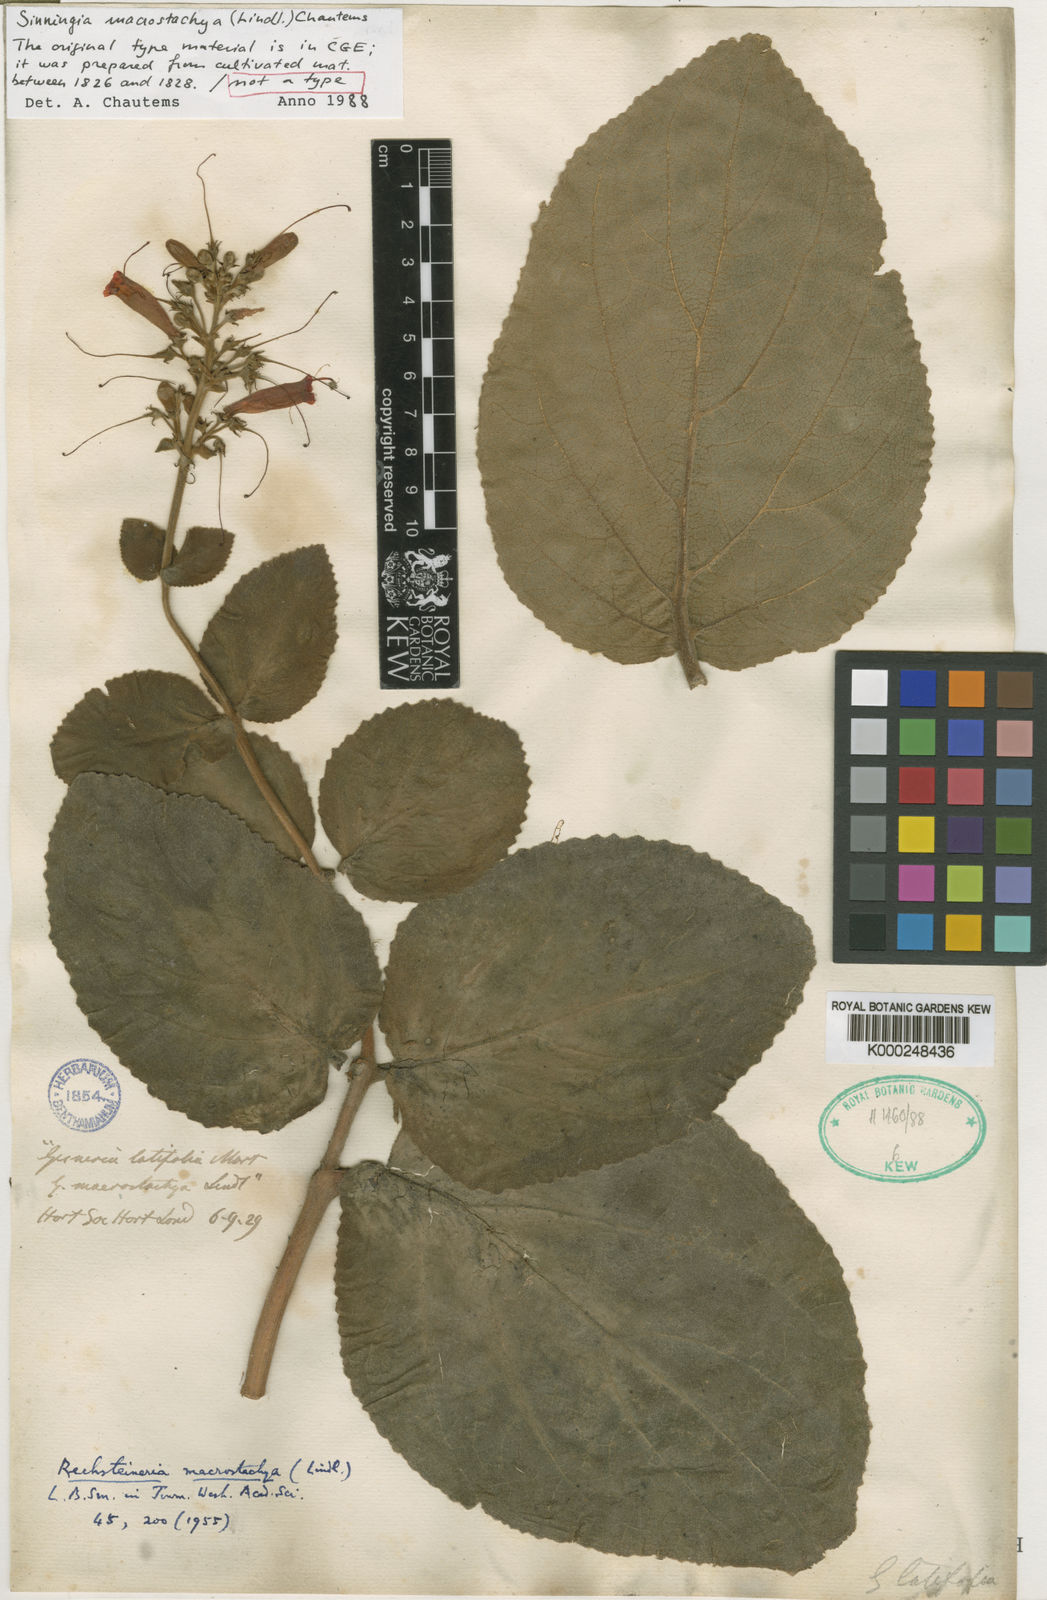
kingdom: Plantae
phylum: Tracheophyta
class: Magnoliopsida
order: Lamiales
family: Gesneriaceae
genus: Sinningia
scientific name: Sinningia macrostachya
